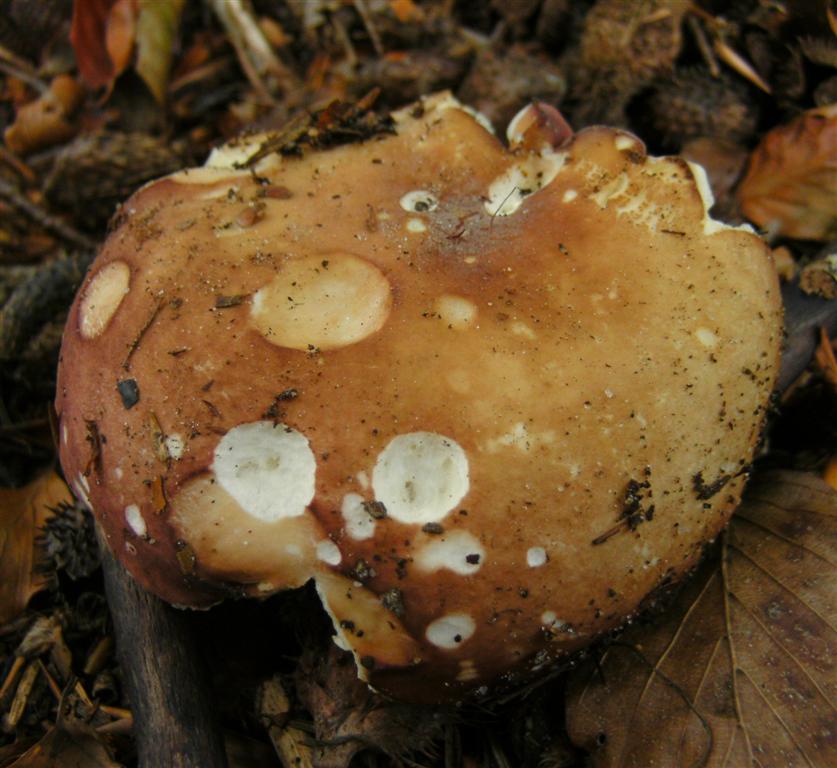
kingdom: Fungi
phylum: Basidiomycota
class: Agaricomycetes
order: Russulales
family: Russulaceae
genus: Russula
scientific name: Russula aurora
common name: rosa skørhat
